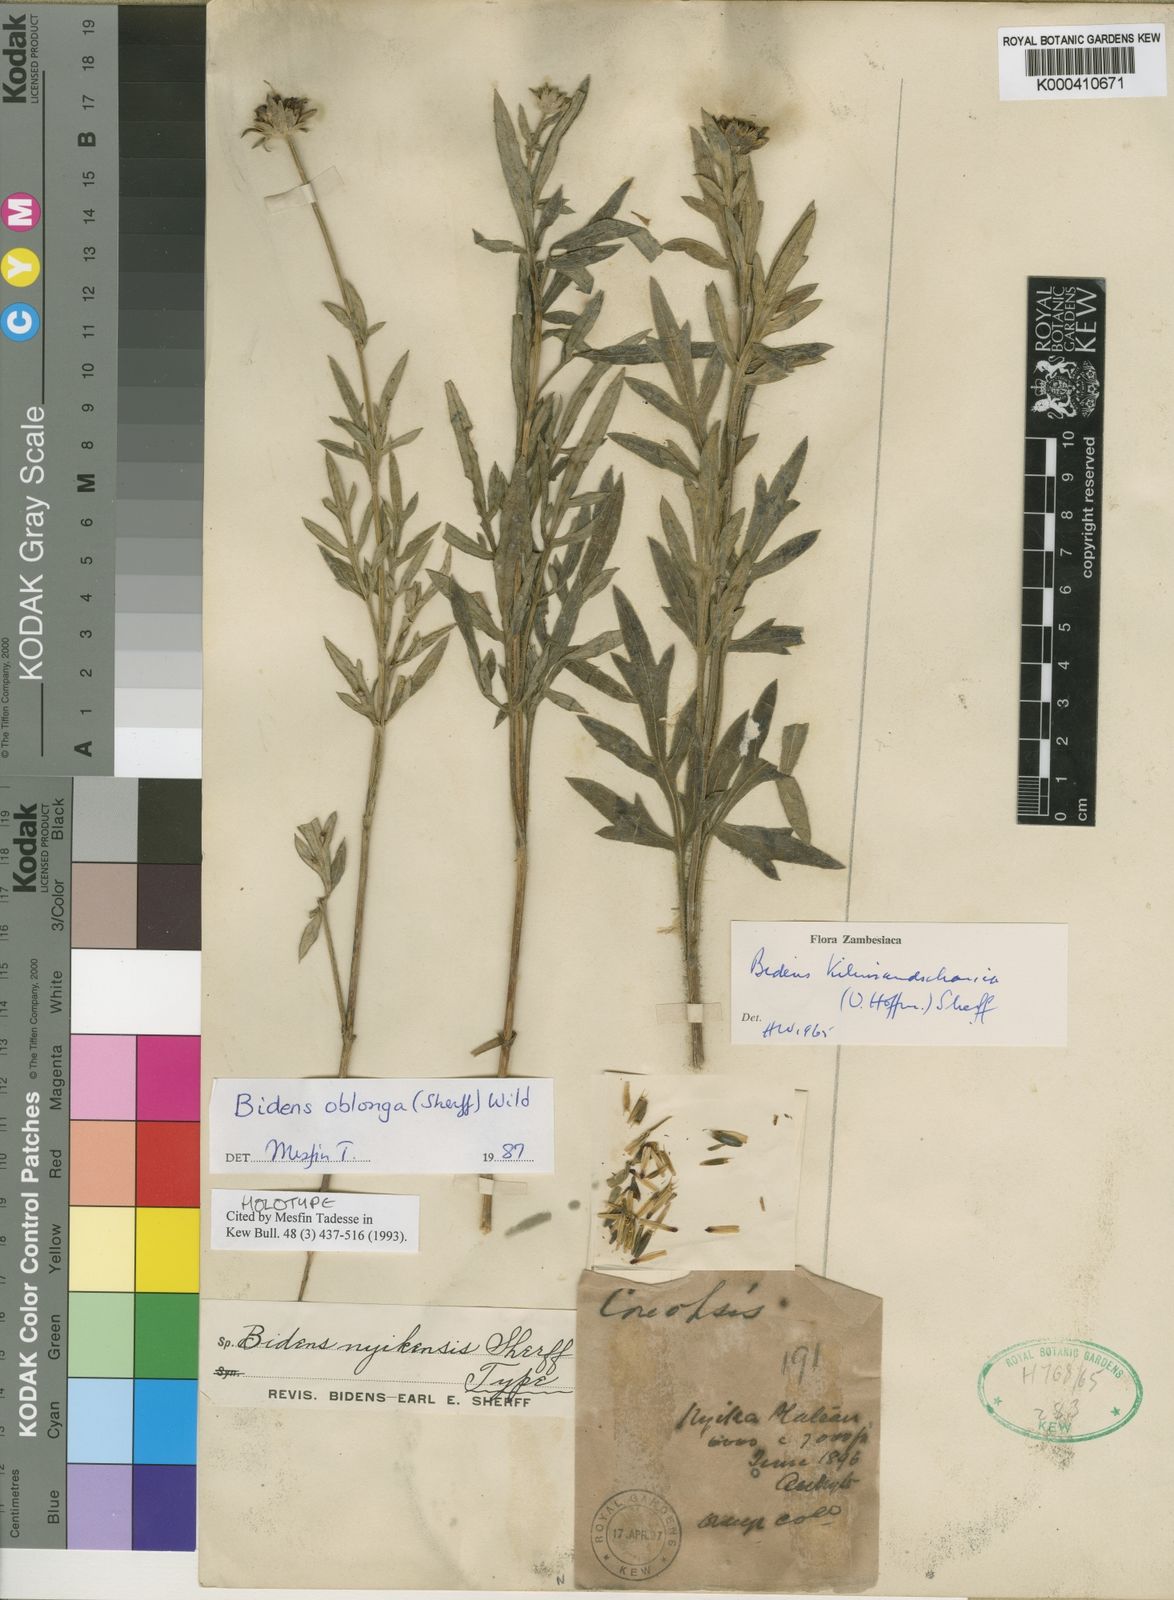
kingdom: Plantae
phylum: Tracheophyta
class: Magnoliopsida
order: Asterales
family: Asteraceae
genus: Bidens
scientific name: Bidens oblonga
